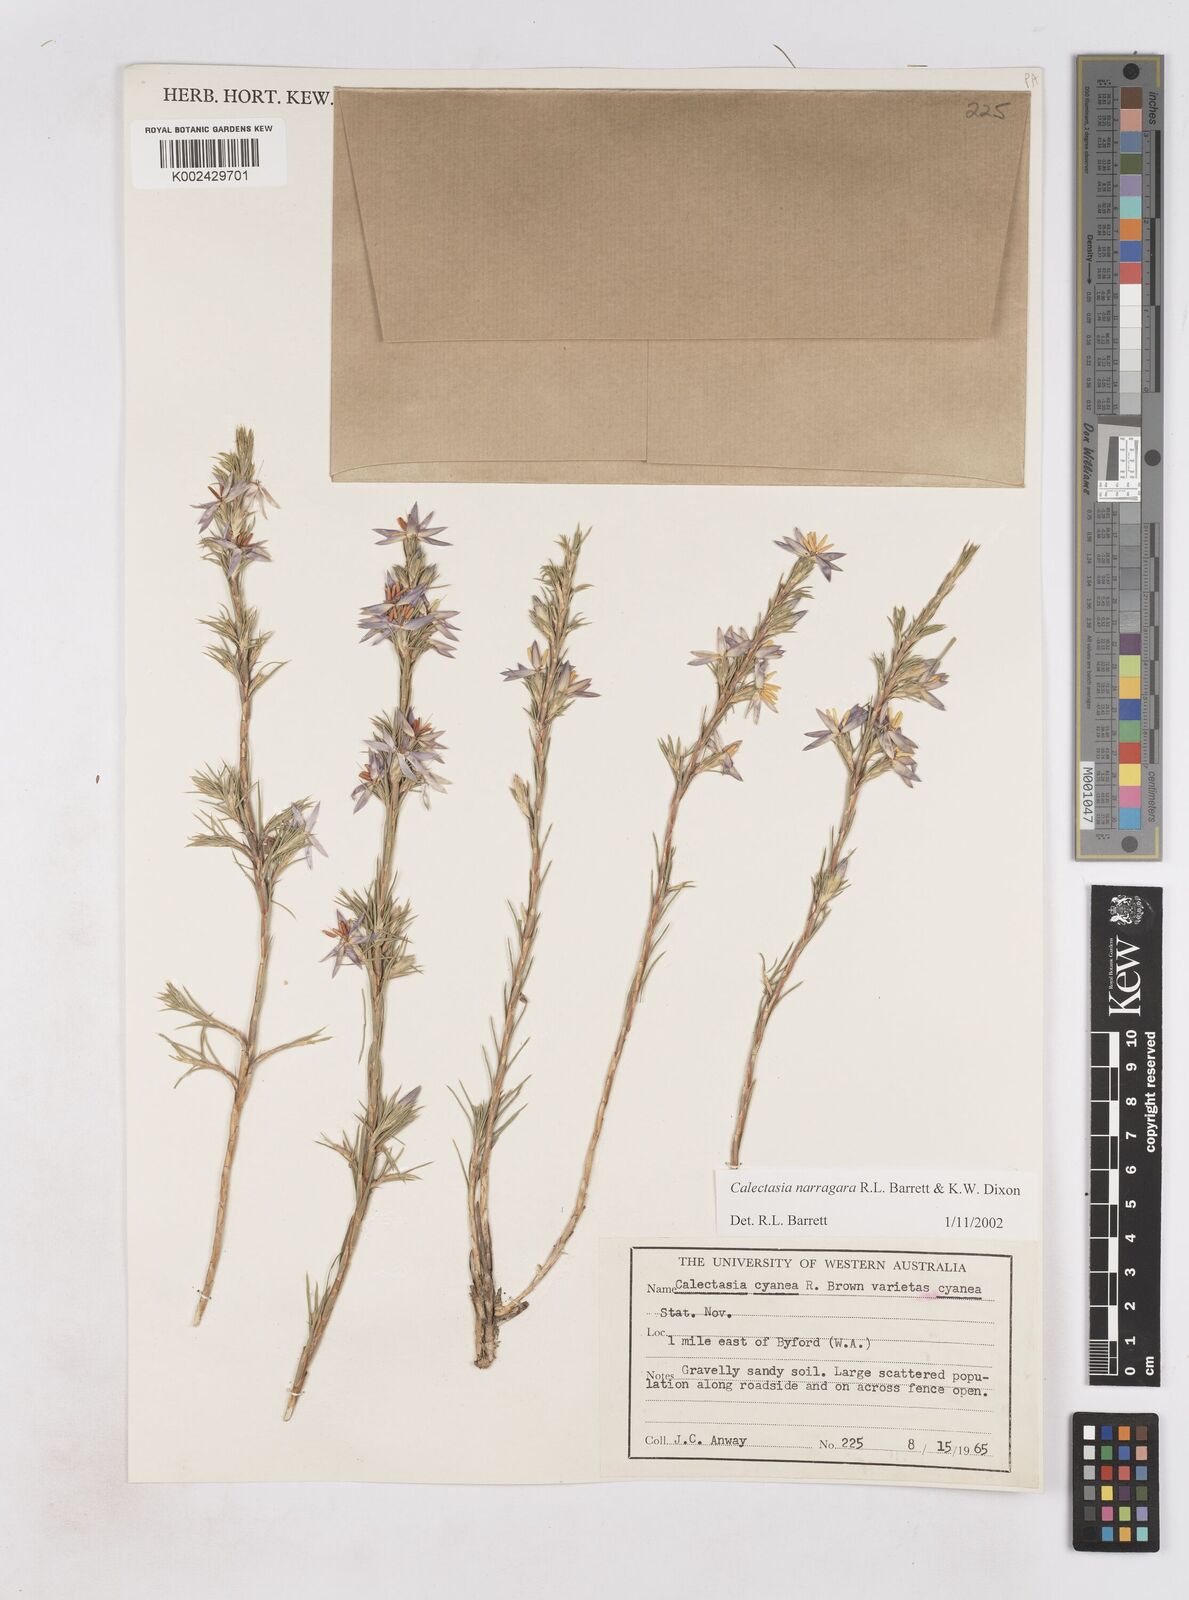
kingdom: Plantae
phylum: Tracheophyta
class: Liliopsida
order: Arecales
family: Dasypogonaceae
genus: Calectasia
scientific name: Calectasia narragara
